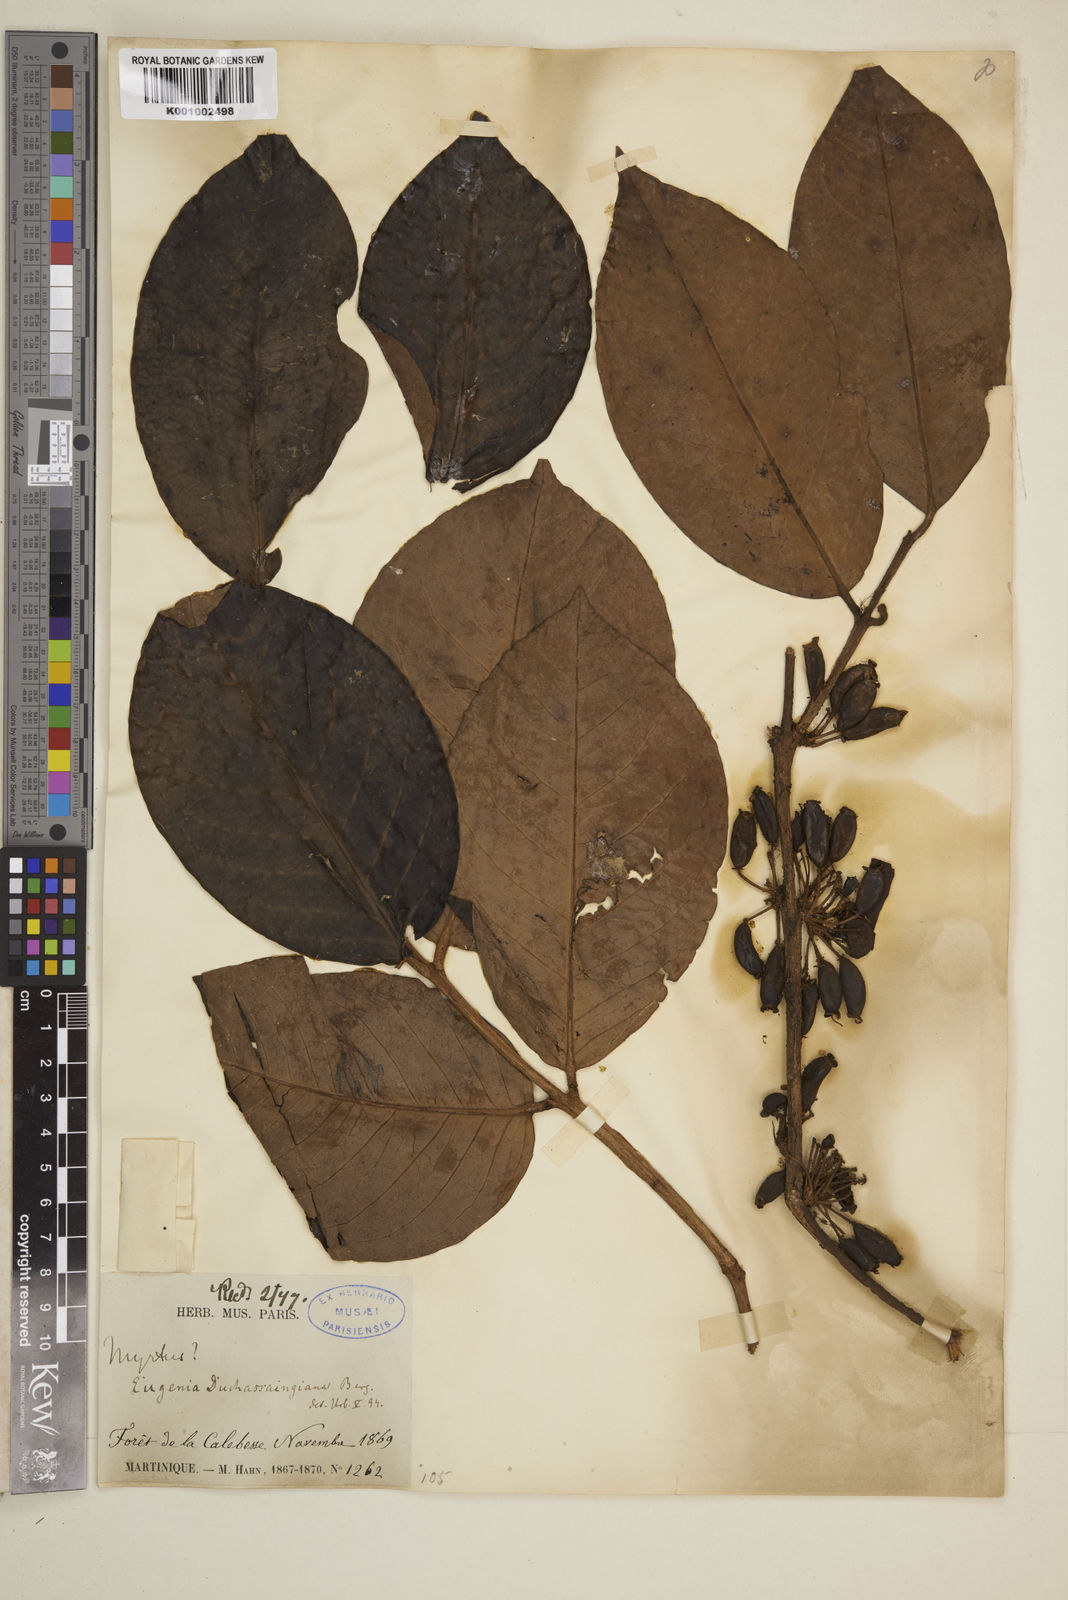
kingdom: Plantae
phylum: Tracheophyta
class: Magnoliopsida
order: Myrtales
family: Myrtaceae
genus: Eugenia
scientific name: Eugenia duchassaingiana
